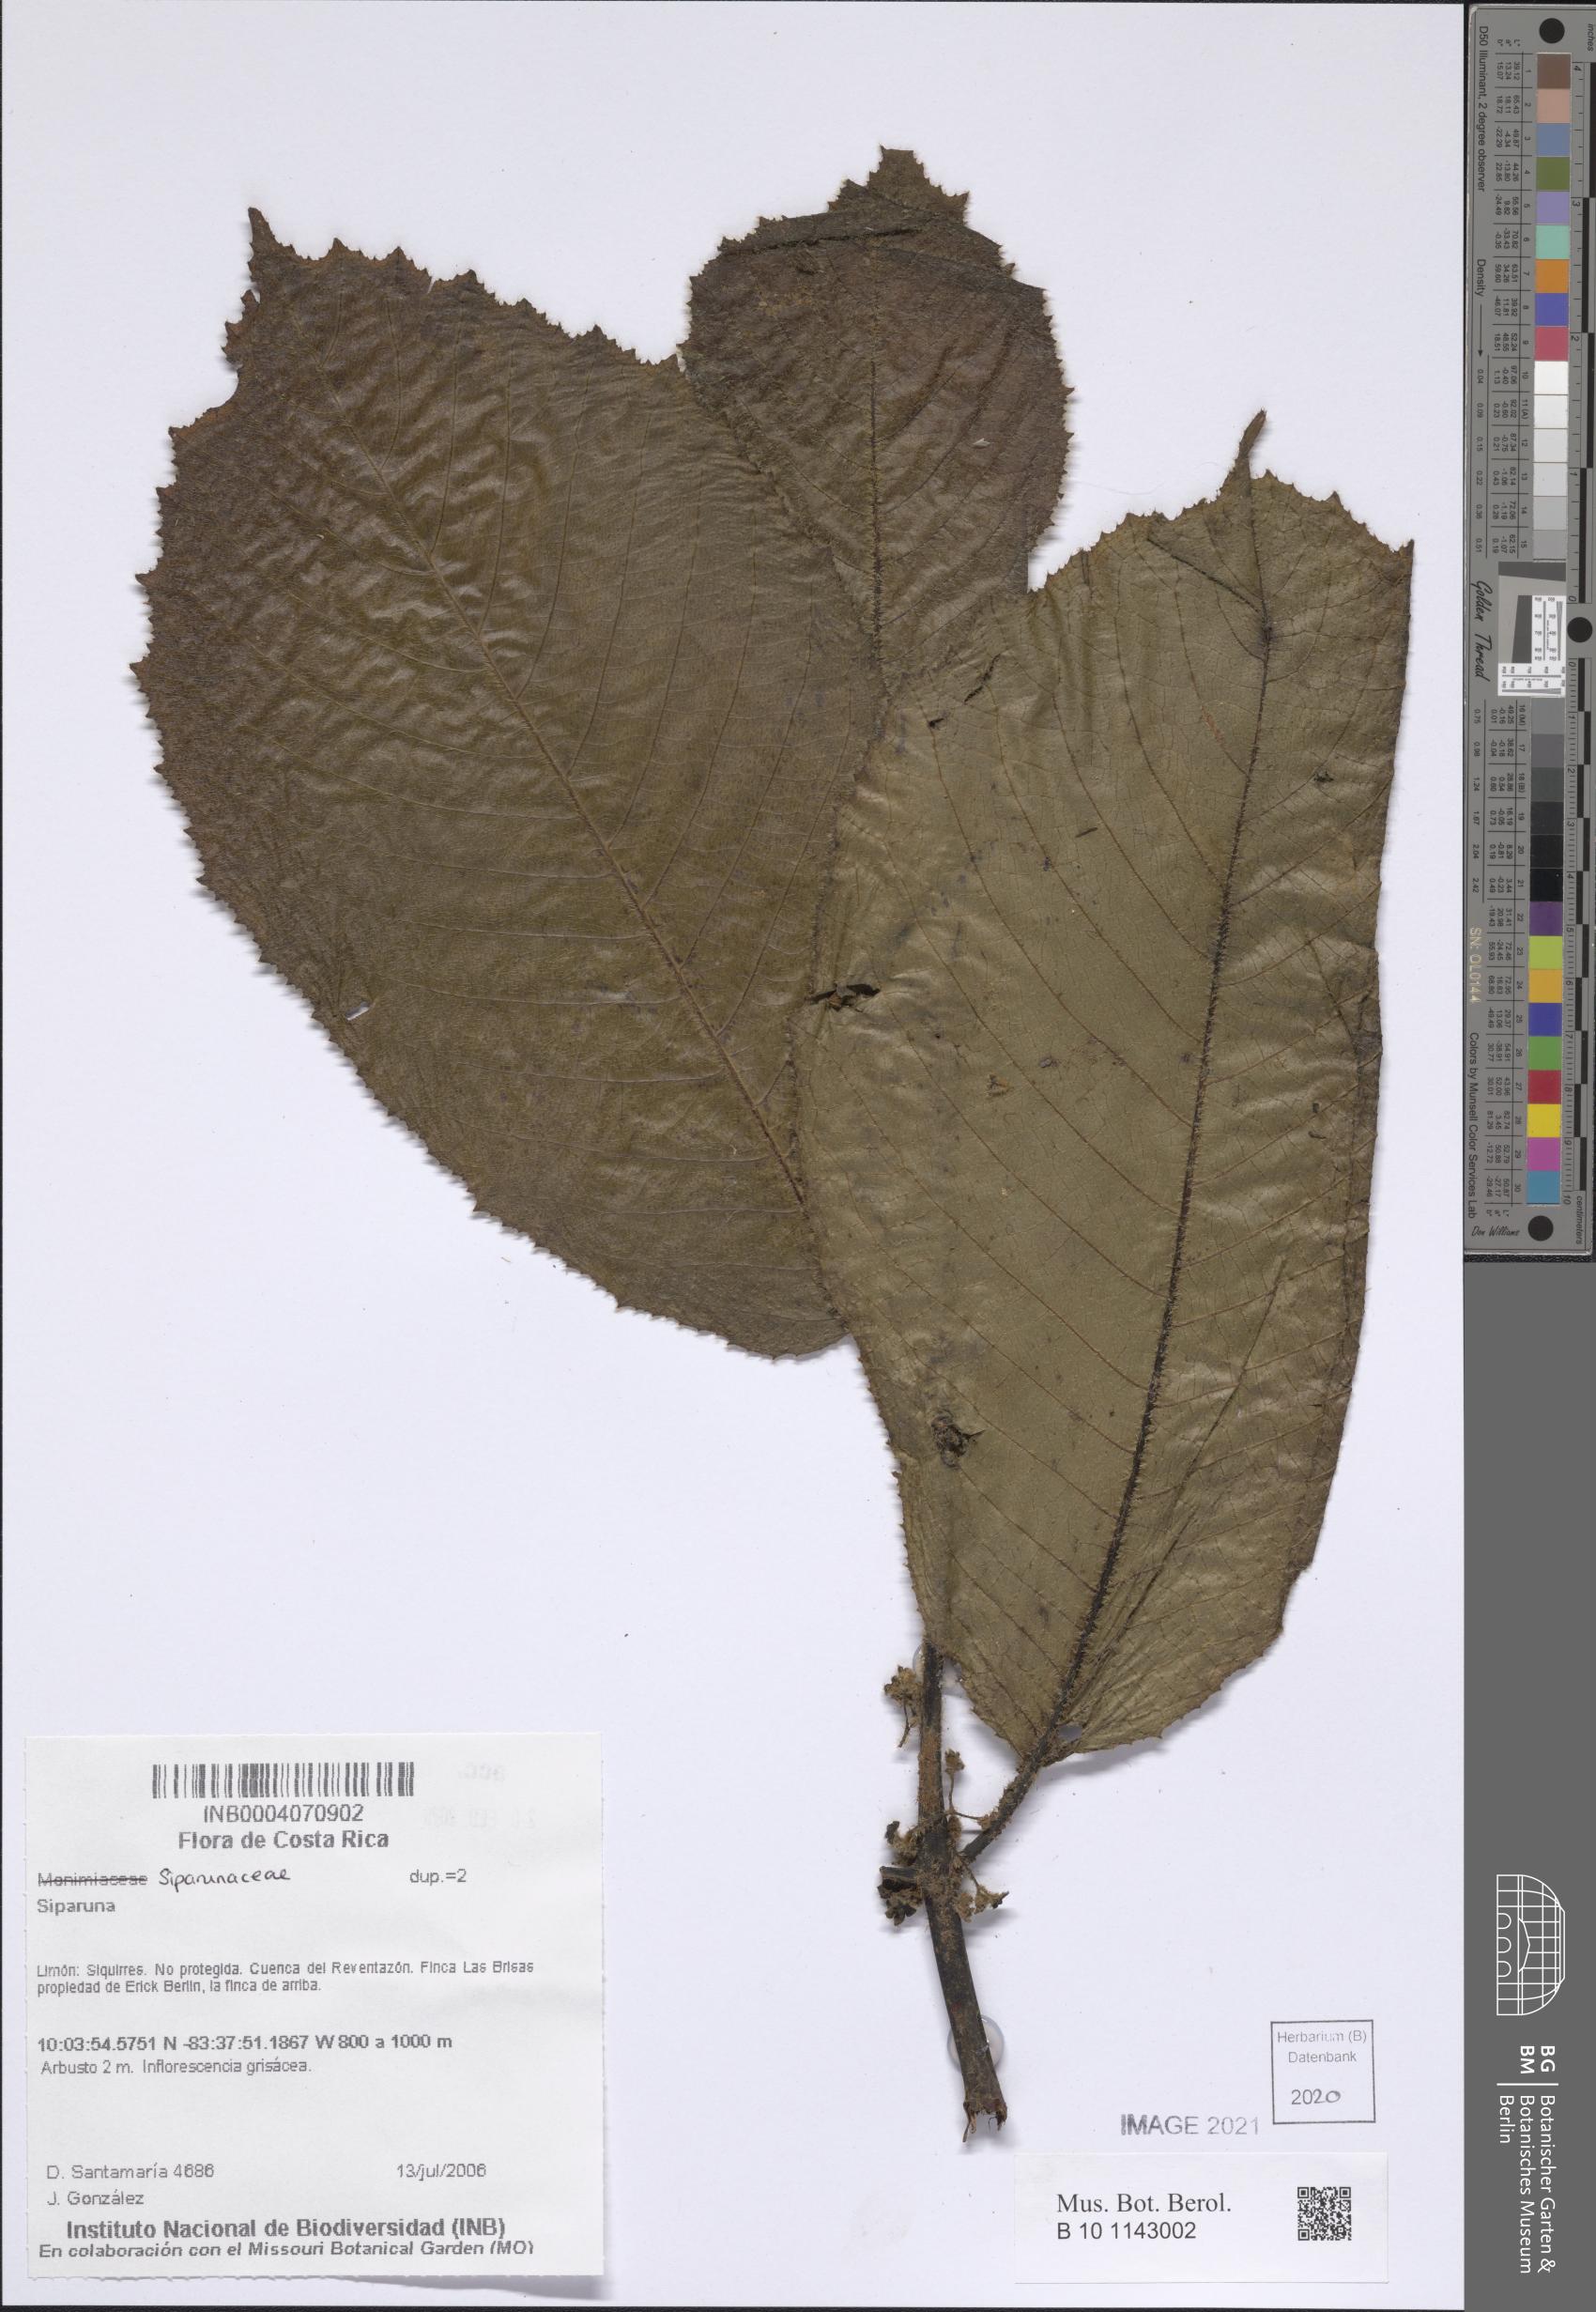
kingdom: Plantae
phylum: Tracheophyta
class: Magnoliopsida
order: Laurales
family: Siparunaceae
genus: Siparuna
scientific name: Siparuna
